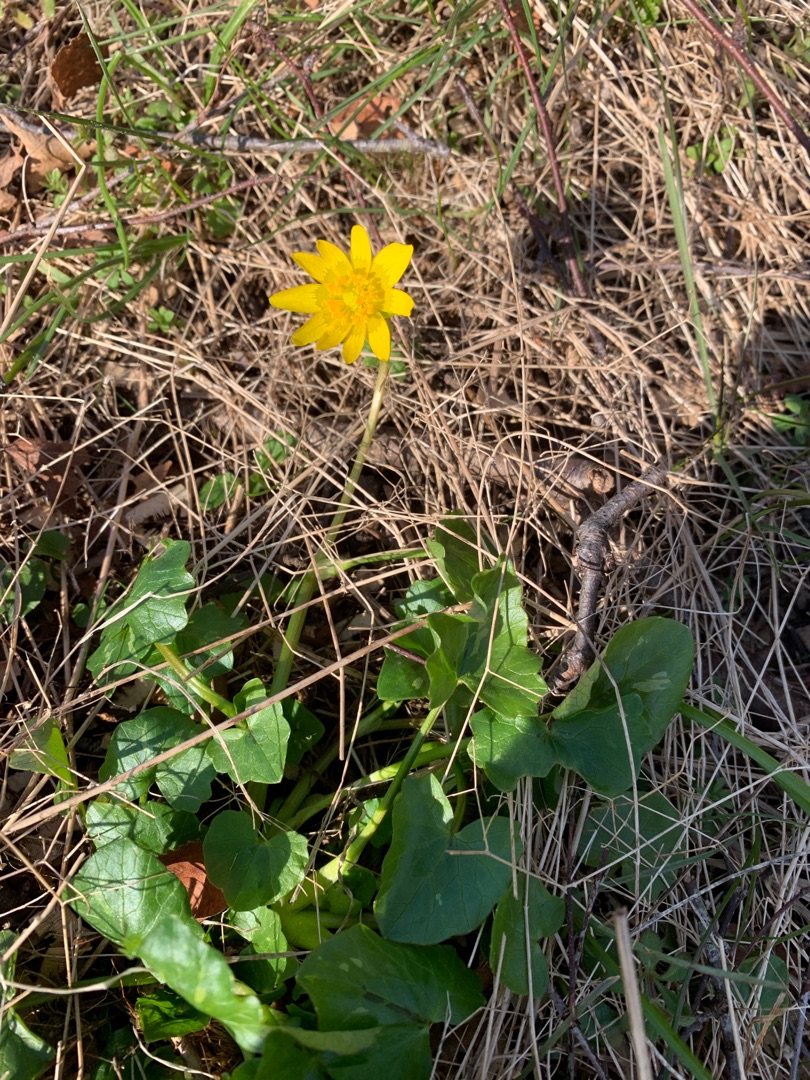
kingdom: Plantae
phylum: Tracheophyta
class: Magnoliopsida
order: Ranunculales
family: Ranunculaceae
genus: Ficaria
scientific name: Ficaria verna
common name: Vorterod
